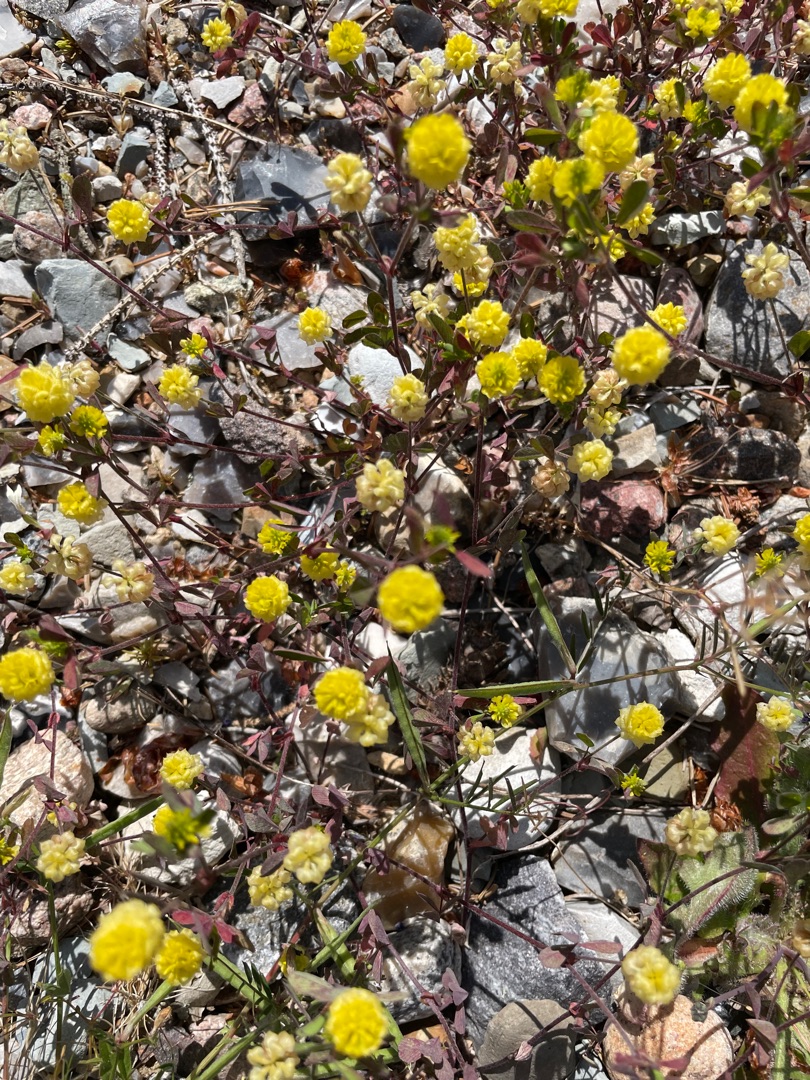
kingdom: Plantae
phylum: Tracheophyta
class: Magnoliopsida
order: Fabales
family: Fabaceae
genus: Trifolium
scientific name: Trifolium campestre
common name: Gul kløver
